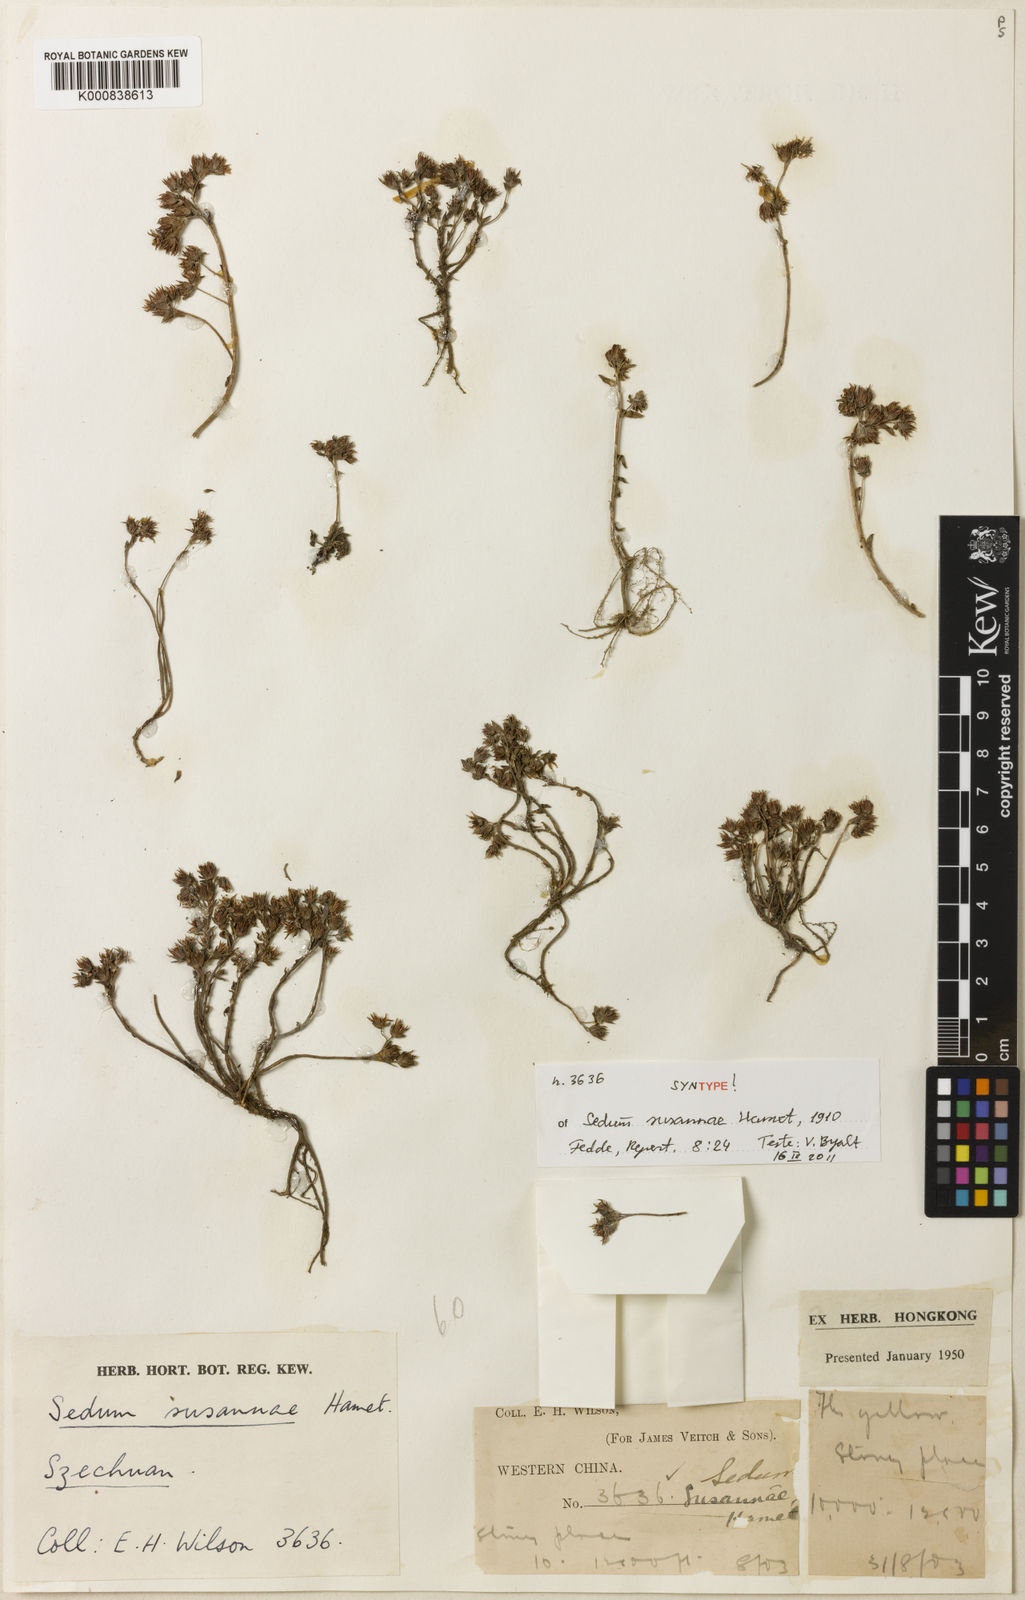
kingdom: Plantae
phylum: Tracheophyta
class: Magnoliopsida
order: Saxifragales
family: Crassulaceae
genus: Sedum
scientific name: Sedum susannae
